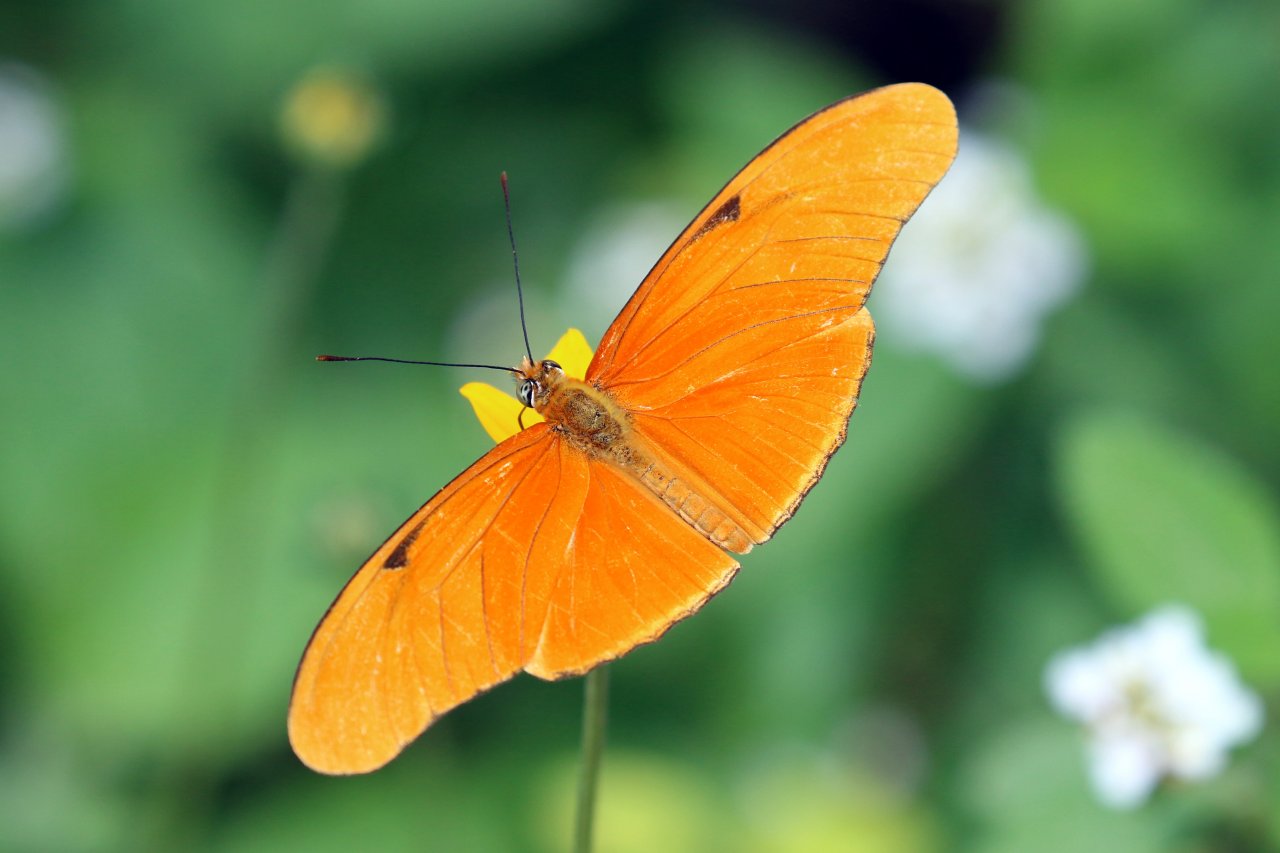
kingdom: Animalia
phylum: Arthropoda
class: Insecta
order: Lepidoptera
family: Nymphalidae
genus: Dryas
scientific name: Dryas iulia
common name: Julia
